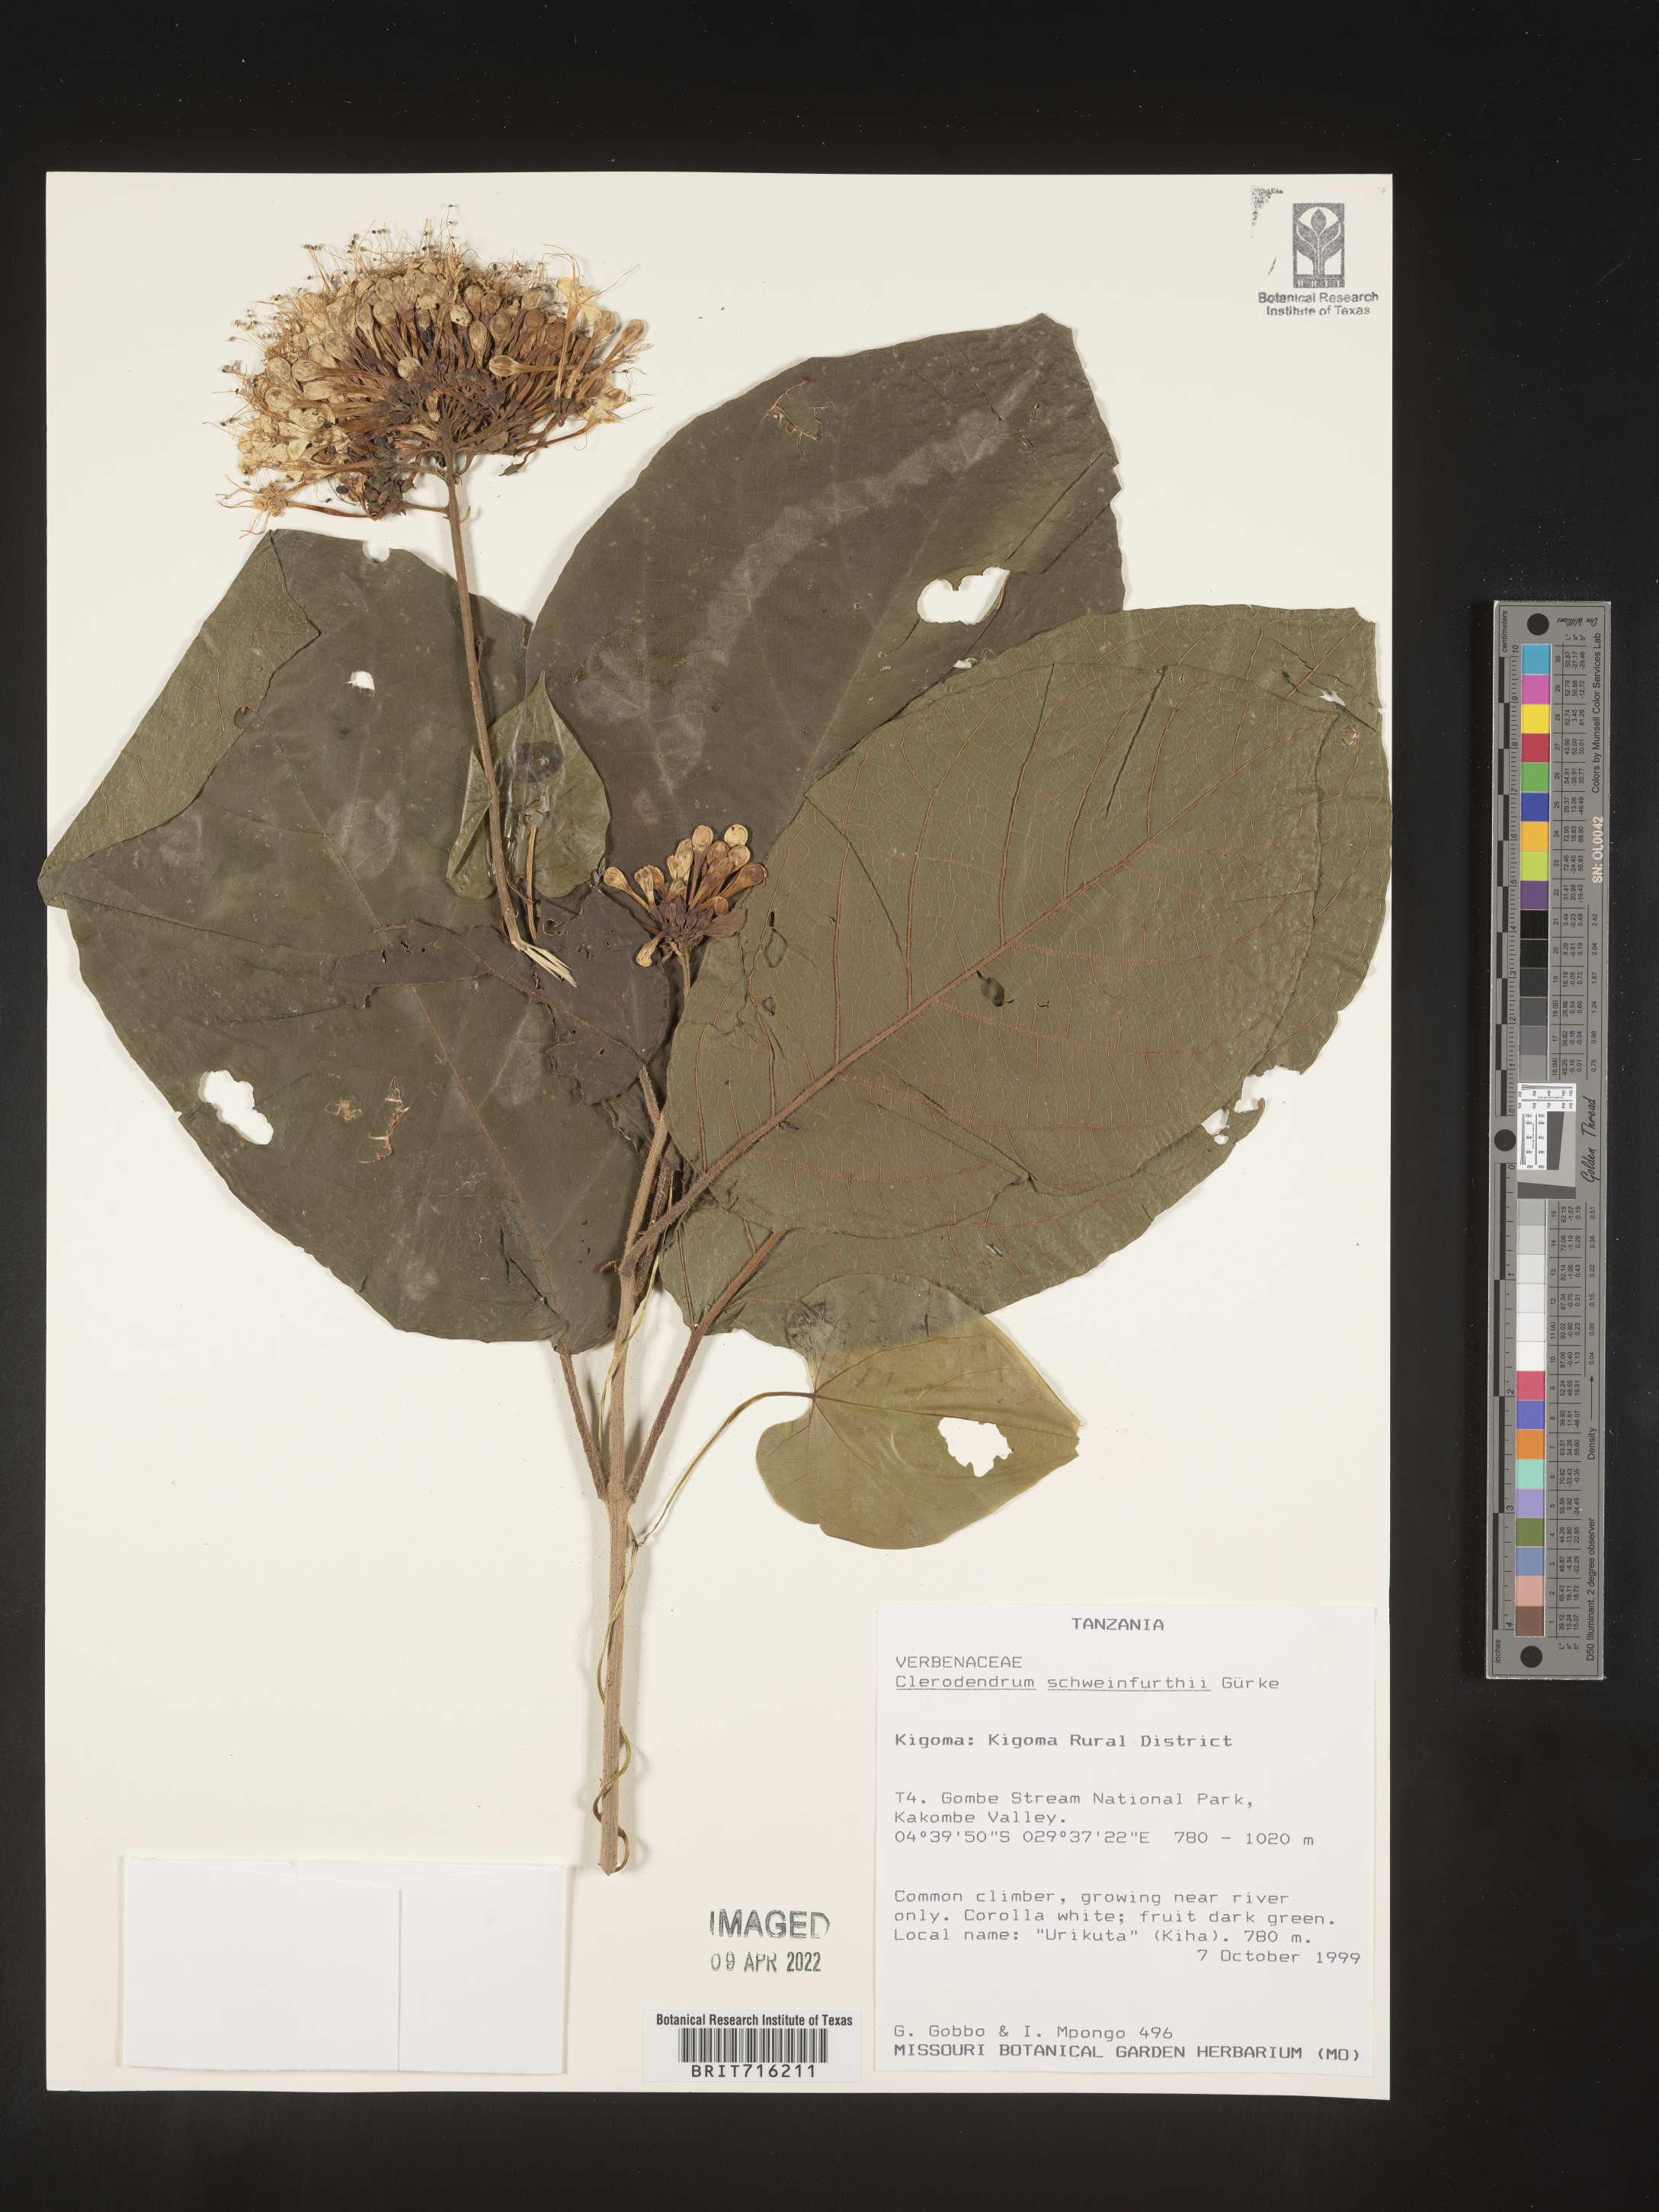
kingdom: Plantae
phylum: Tracheophyta
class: Magnoliopsida
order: Lamiales
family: Lamiaceae
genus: Clerodendrum
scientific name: Clerodendrum
